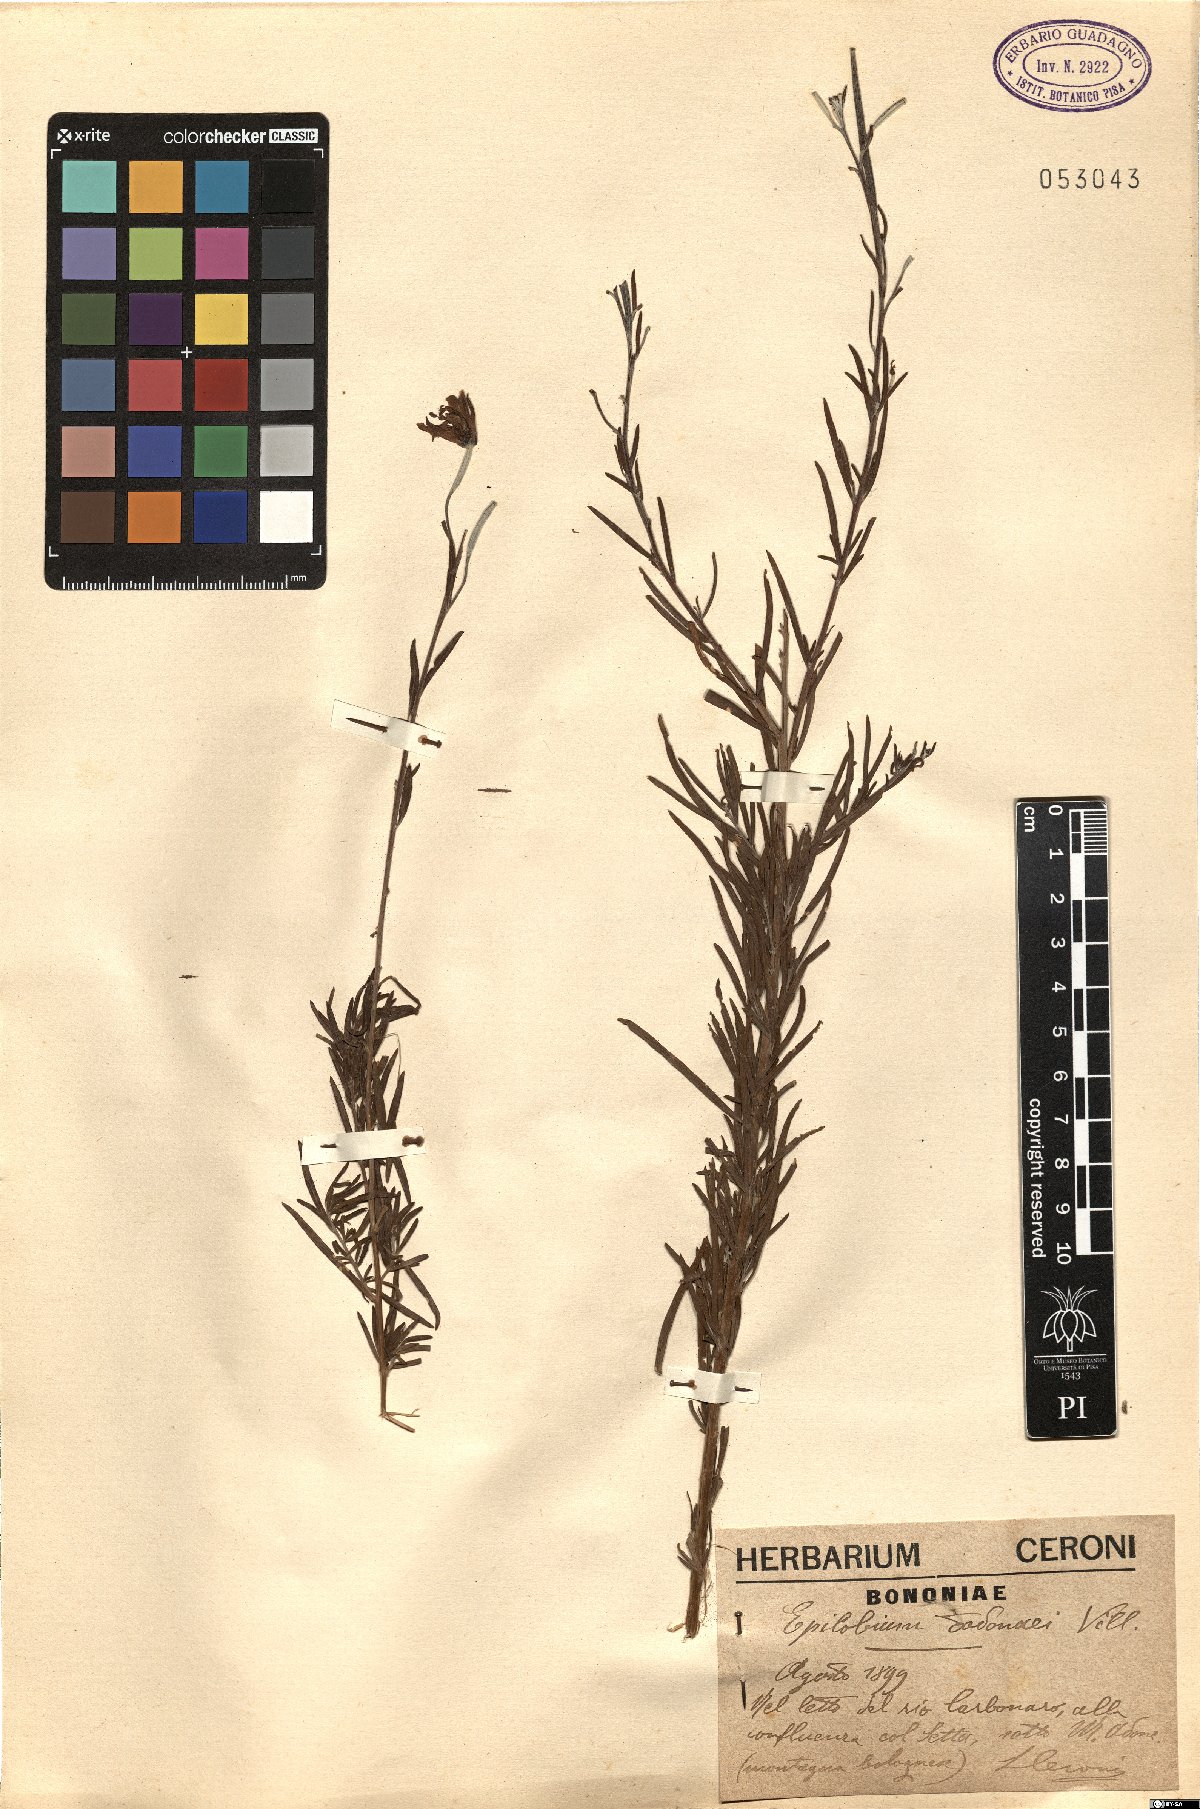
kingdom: Plantae
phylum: Tracheophyta
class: Magnoliopsida
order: Myrtales
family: Onagraceae
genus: Chamaenerion
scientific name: Chamaenerion dodonaei
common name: Rosemary-leaved willowherb
